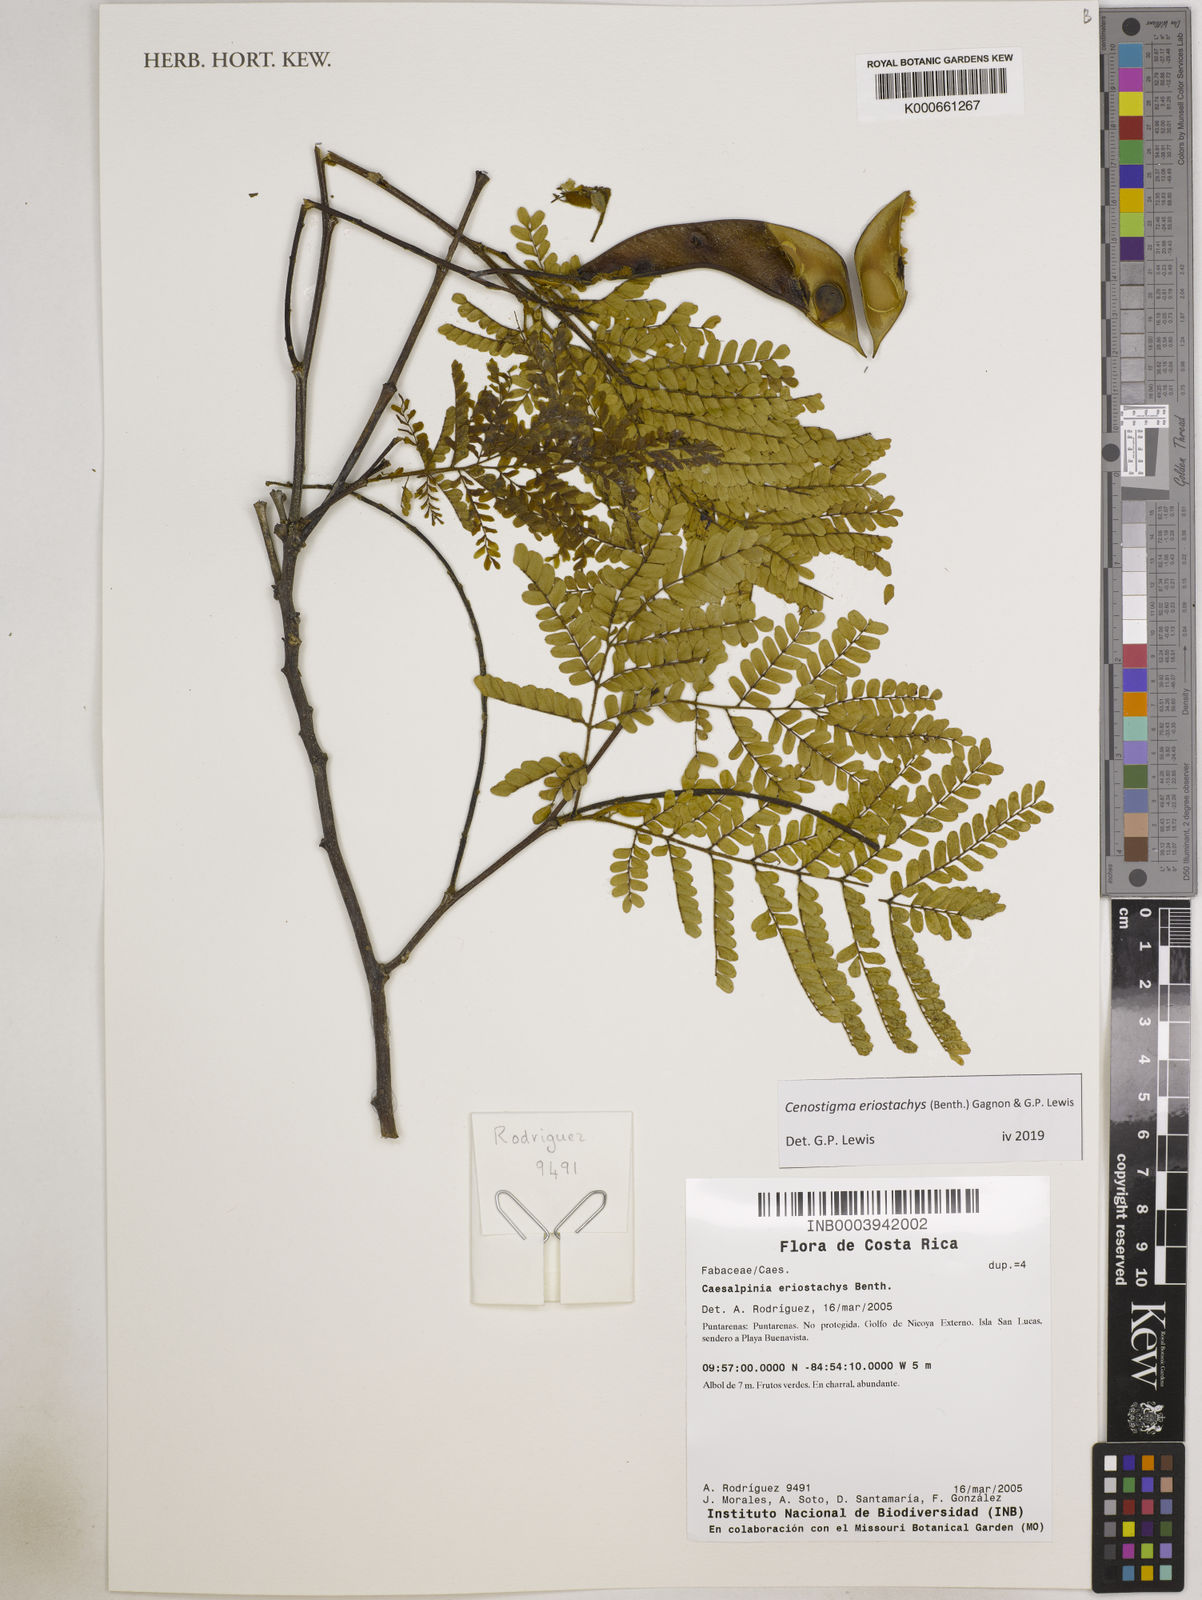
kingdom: Plantae
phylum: Tracheophyta
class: Magnoliopsida
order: Fabales
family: Fabaceae
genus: Cenostigma
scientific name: Cenostigma eriostachys
